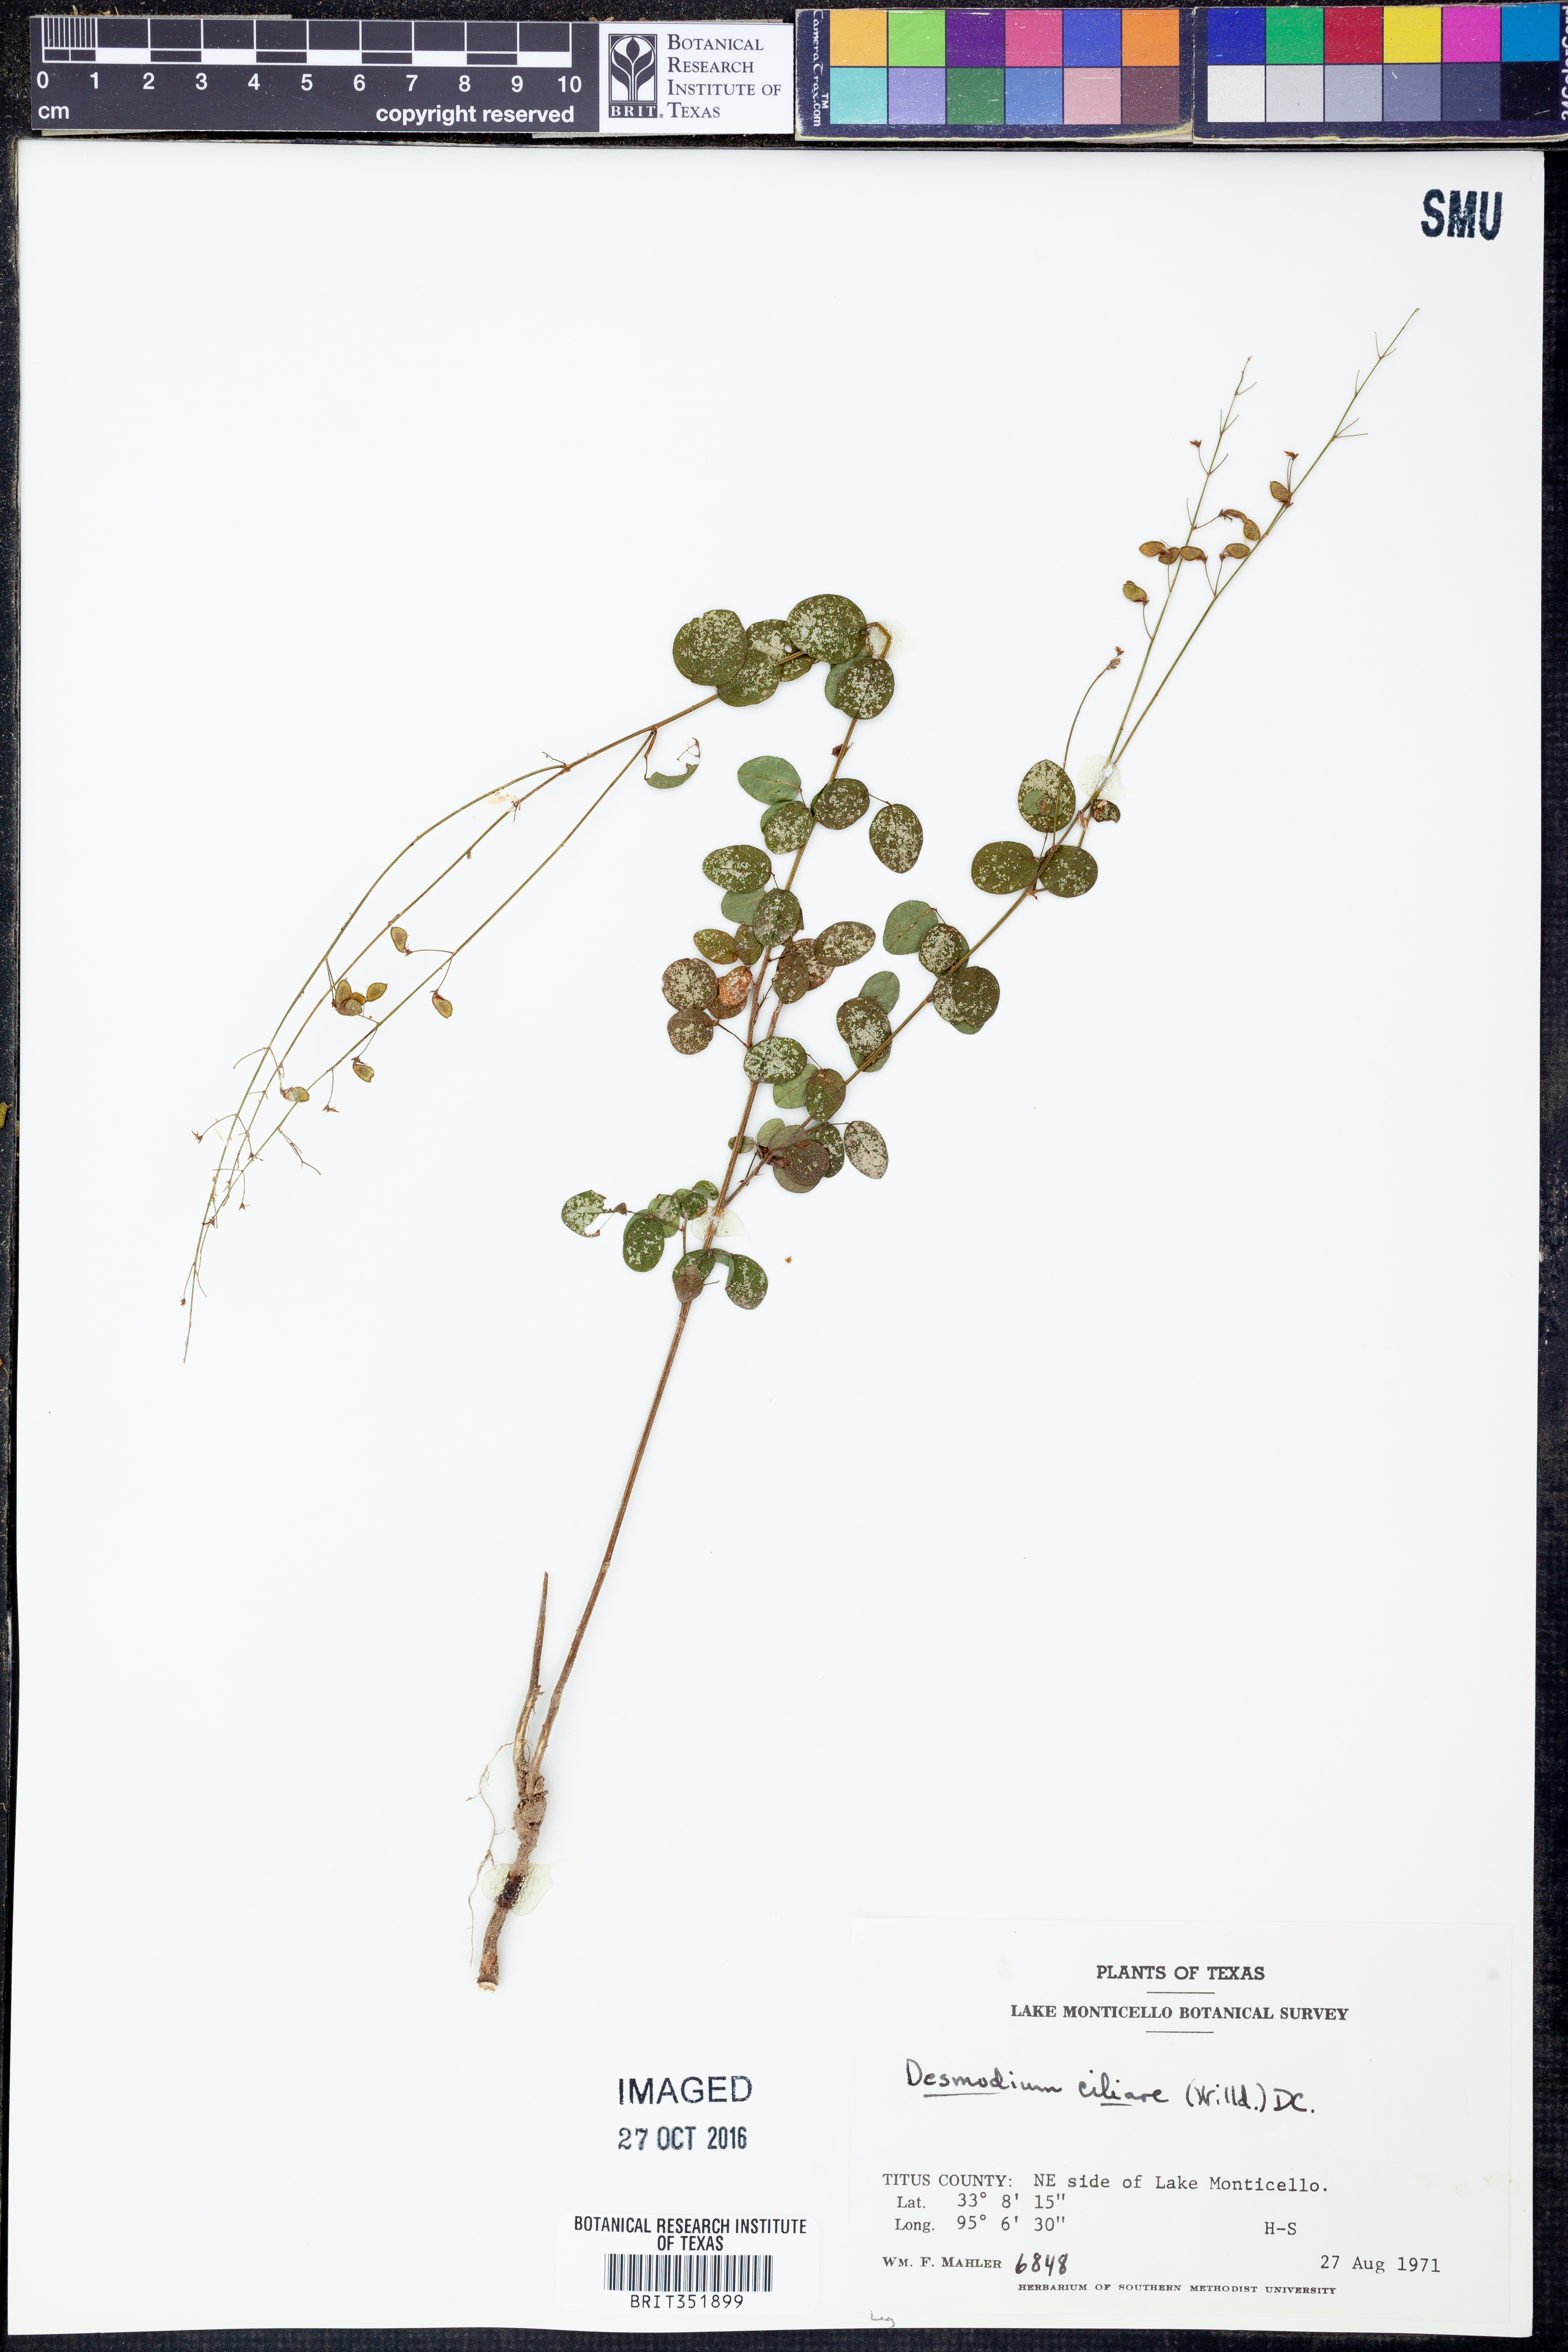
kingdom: Plantae
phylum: Tracheophyta
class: Magnoliopsida
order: Fabales
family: Fabaceae
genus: Desmodium
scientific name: Desmodium ciliare
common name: Hairy small-leaf ticktrefoil
